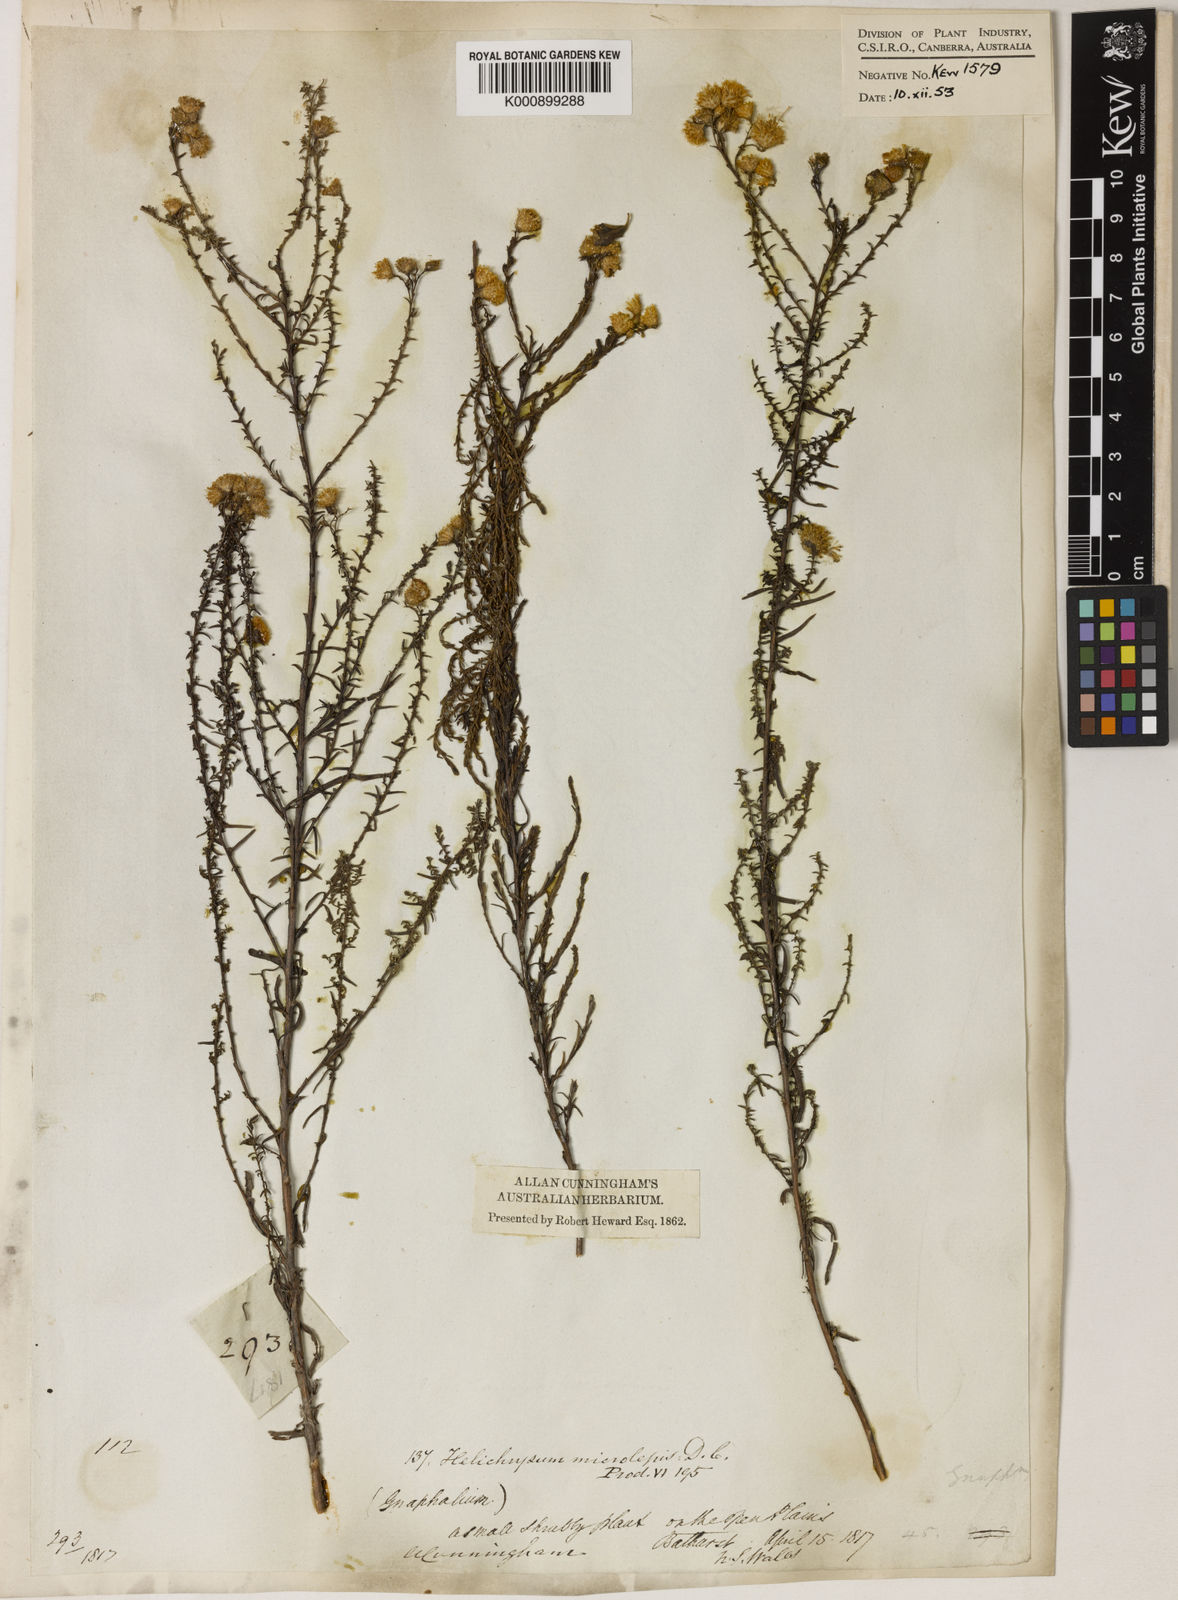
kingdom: Plantae
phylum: Tracheophyta
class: Magnoliopsida
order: Asterales
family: Asteraceae
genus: Chrysocephalum
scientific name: Chrysocephalum semipapposum
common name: Clustered everlasting
